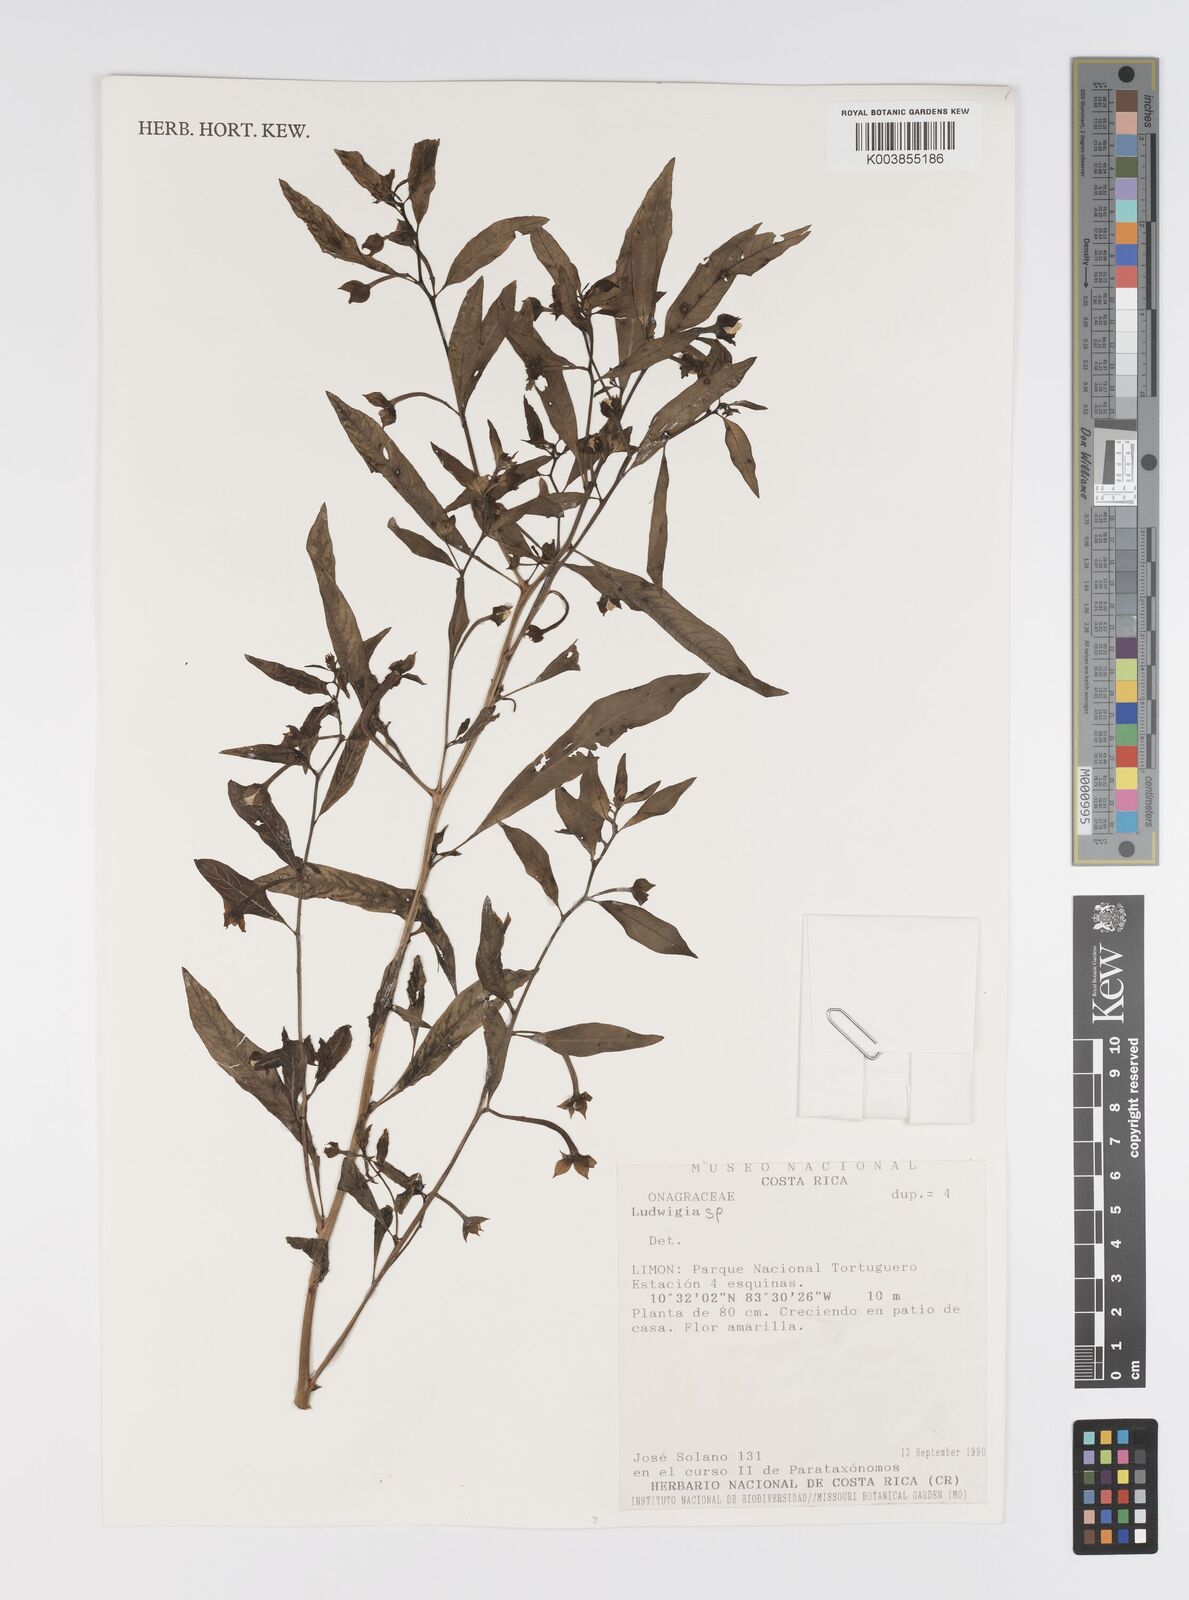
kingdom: Plantae
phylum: Tracheophyta
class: Magnoliopsida
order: Myrtales
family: Onagraceae
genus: Ludwigia
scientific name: Ludwigia
